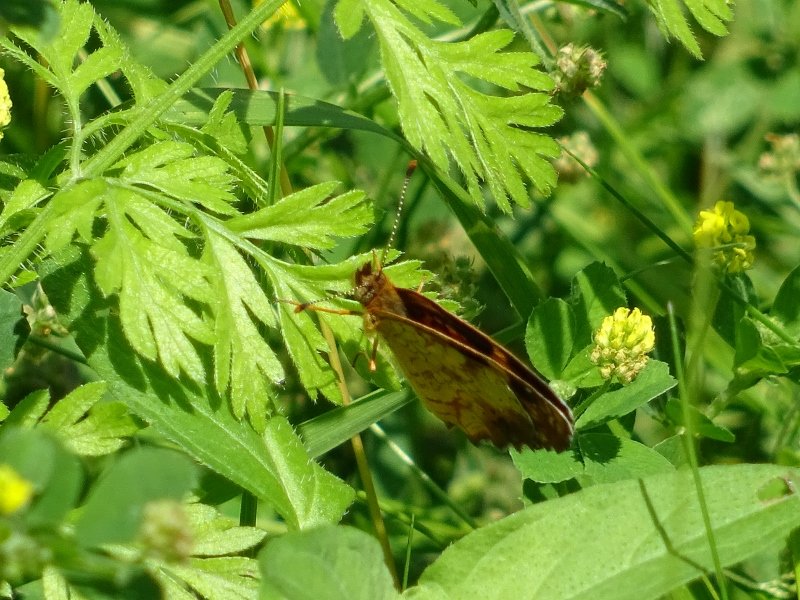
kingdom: Animalia
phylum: Arthropoda
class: Insecta
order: Lepidoptera
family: Nymphalidae
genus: Phyciodes
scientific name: Phyciodes tharos
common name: Northern Crescent
